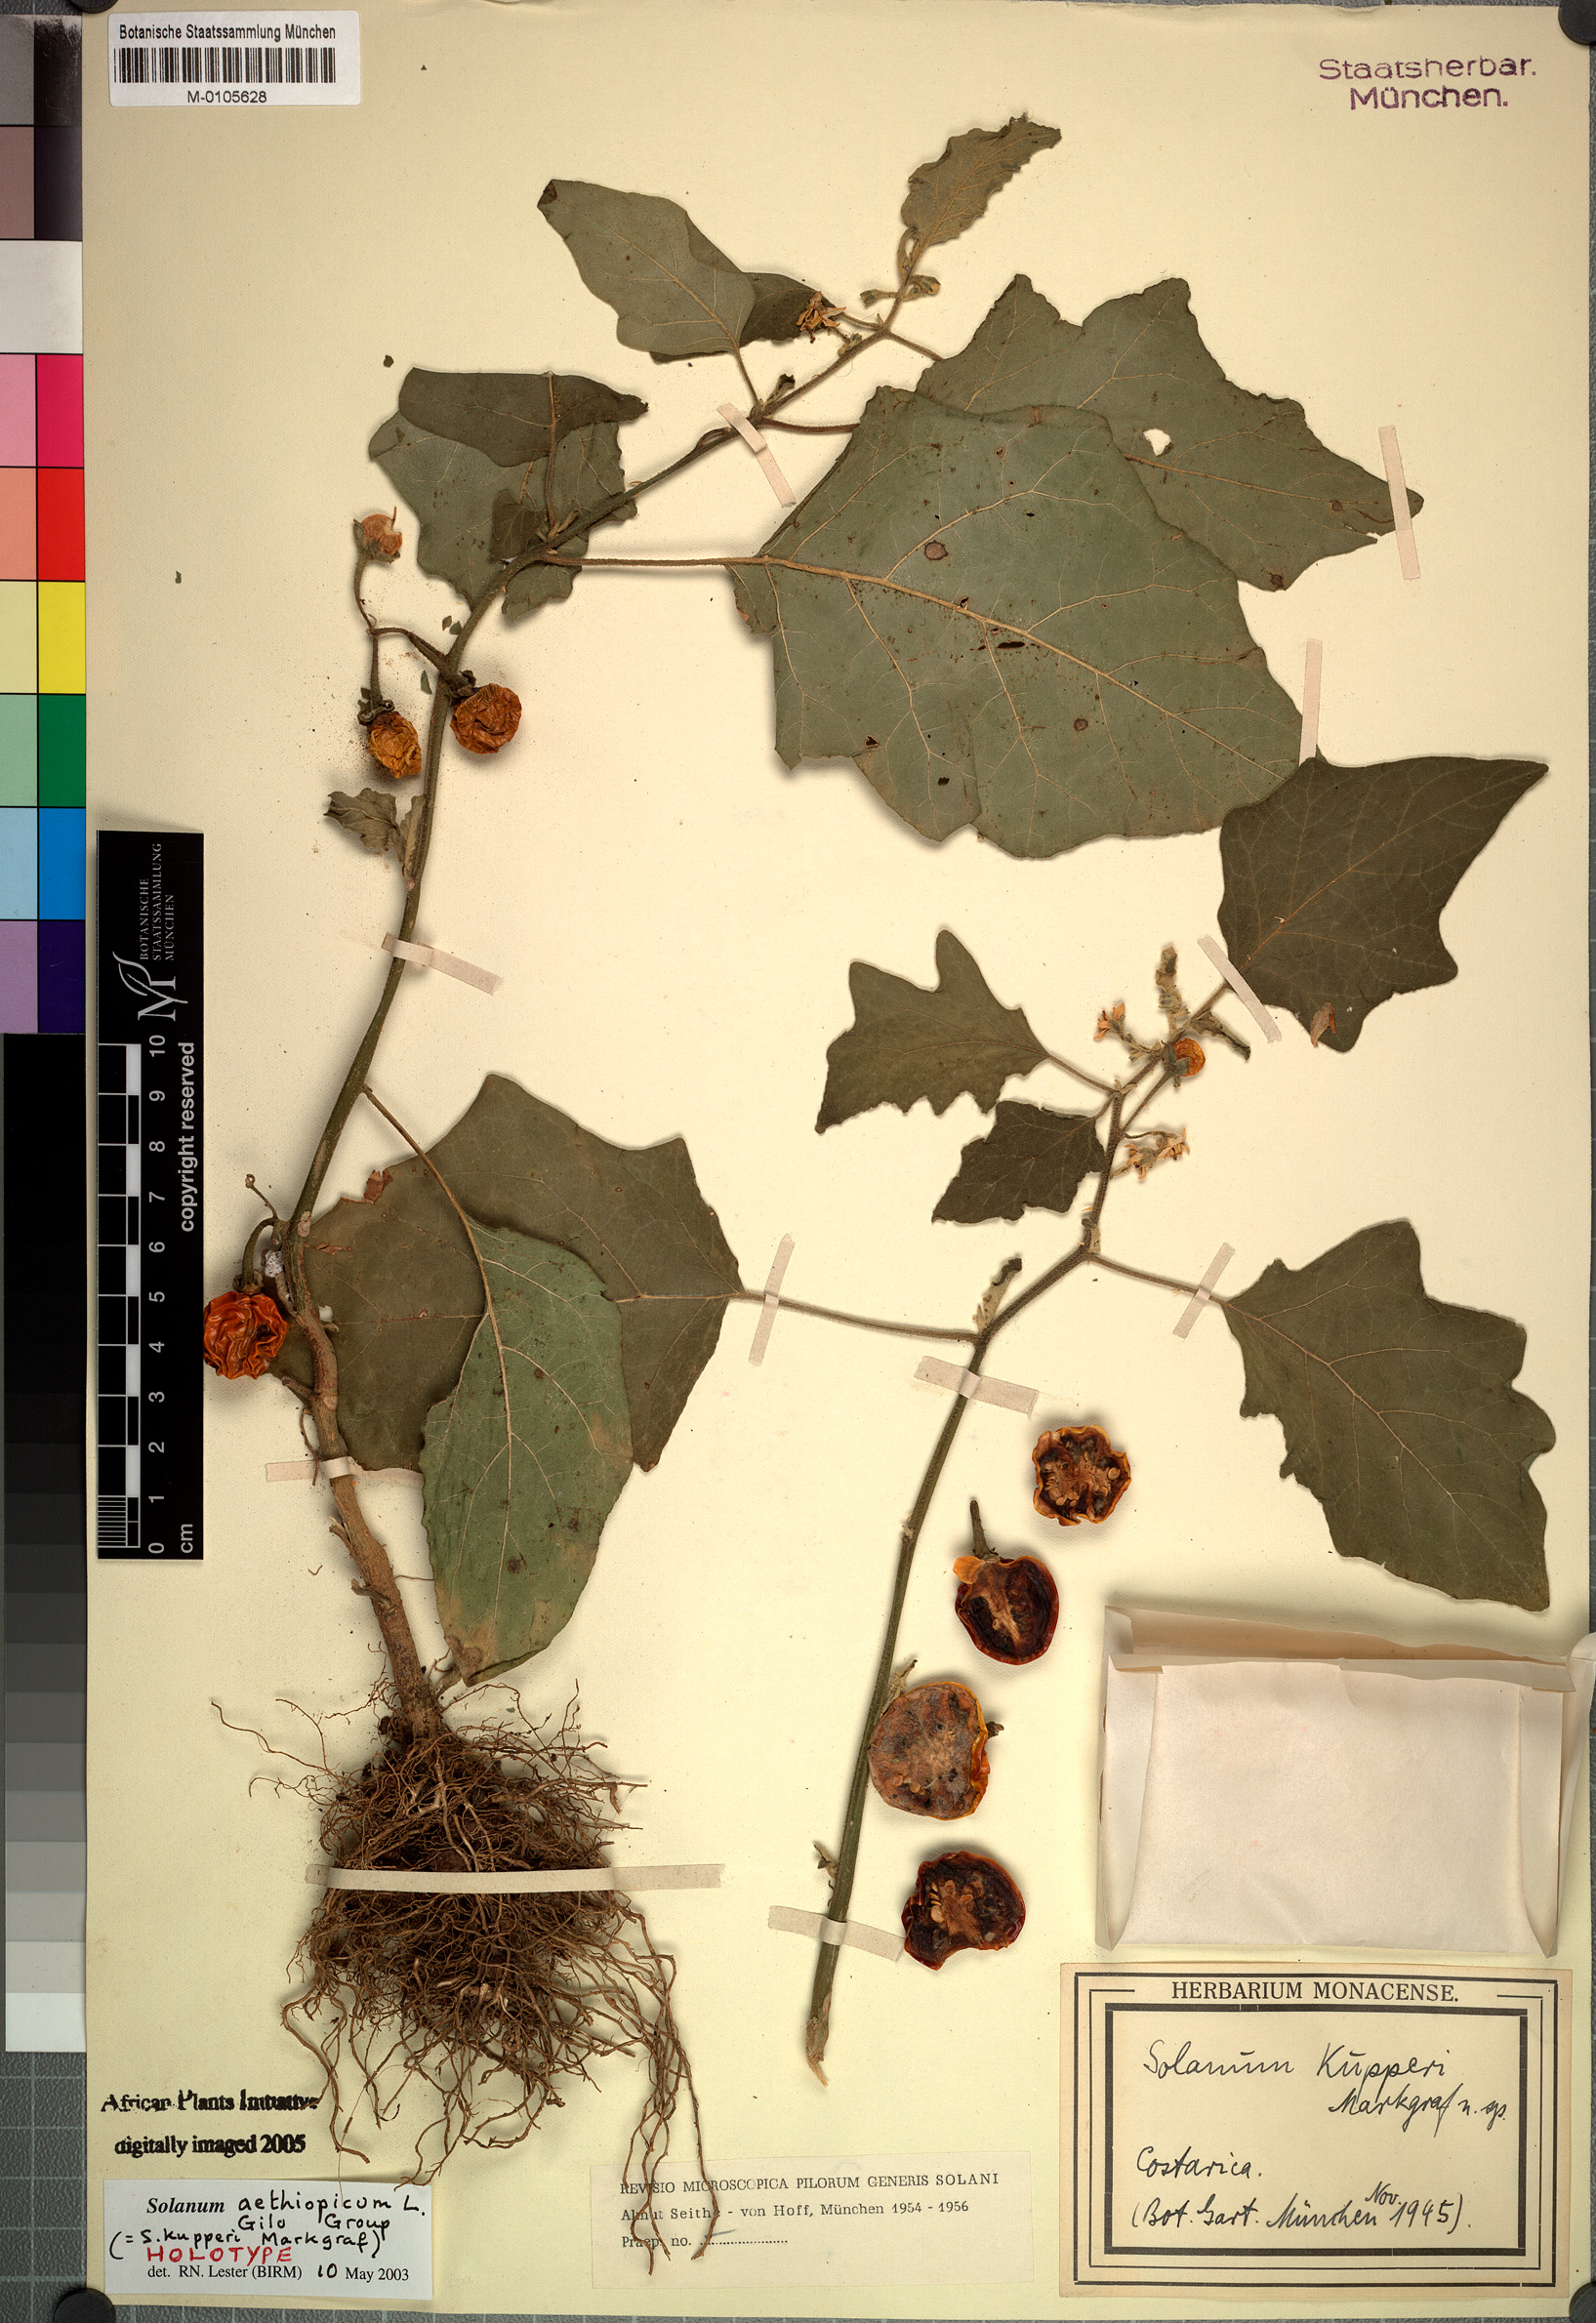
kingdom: Plantae
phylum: Tracheophyta
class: Magnoliopsida
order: Solanales
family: Solanaceae
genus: Solanum
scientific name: Solanum aethiopicum
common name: Gilo
